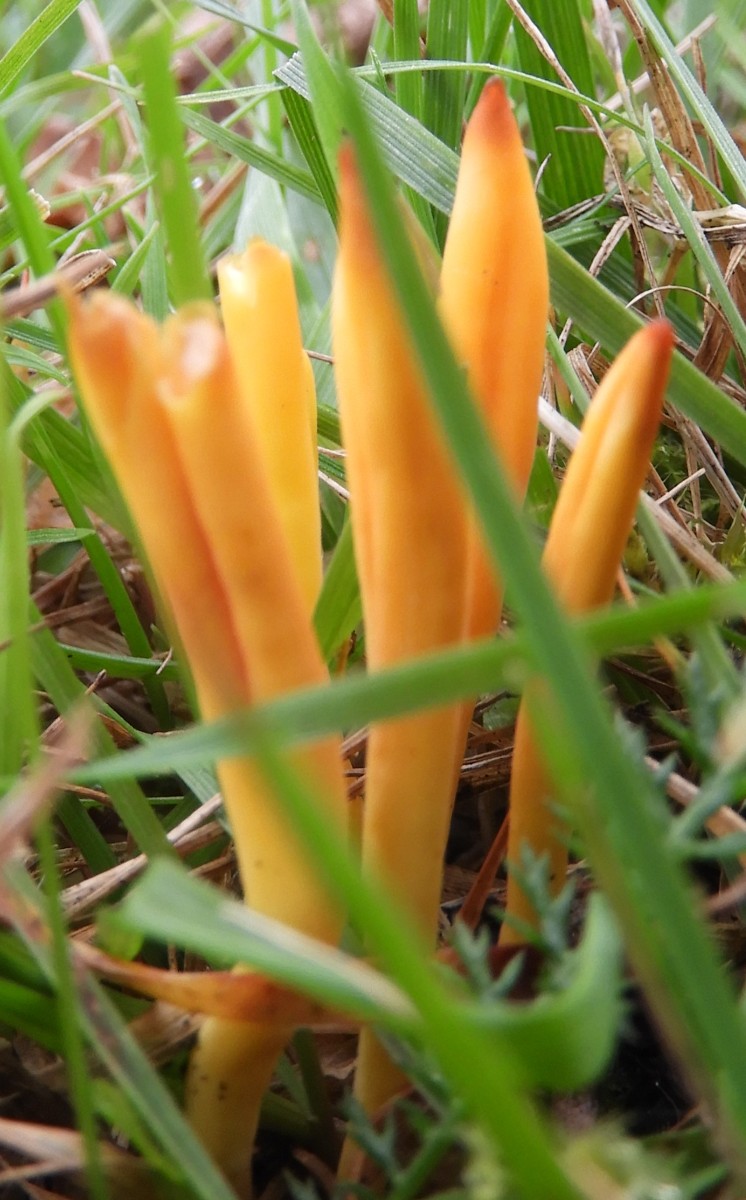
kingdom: Fungi
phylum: Basidiomycota
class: Agaricomycetes
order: Agaricales
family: Clavariaceae
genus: Clavulinopsis
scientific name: Clavulinopsis helvola
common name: orangegul køllesvamp
